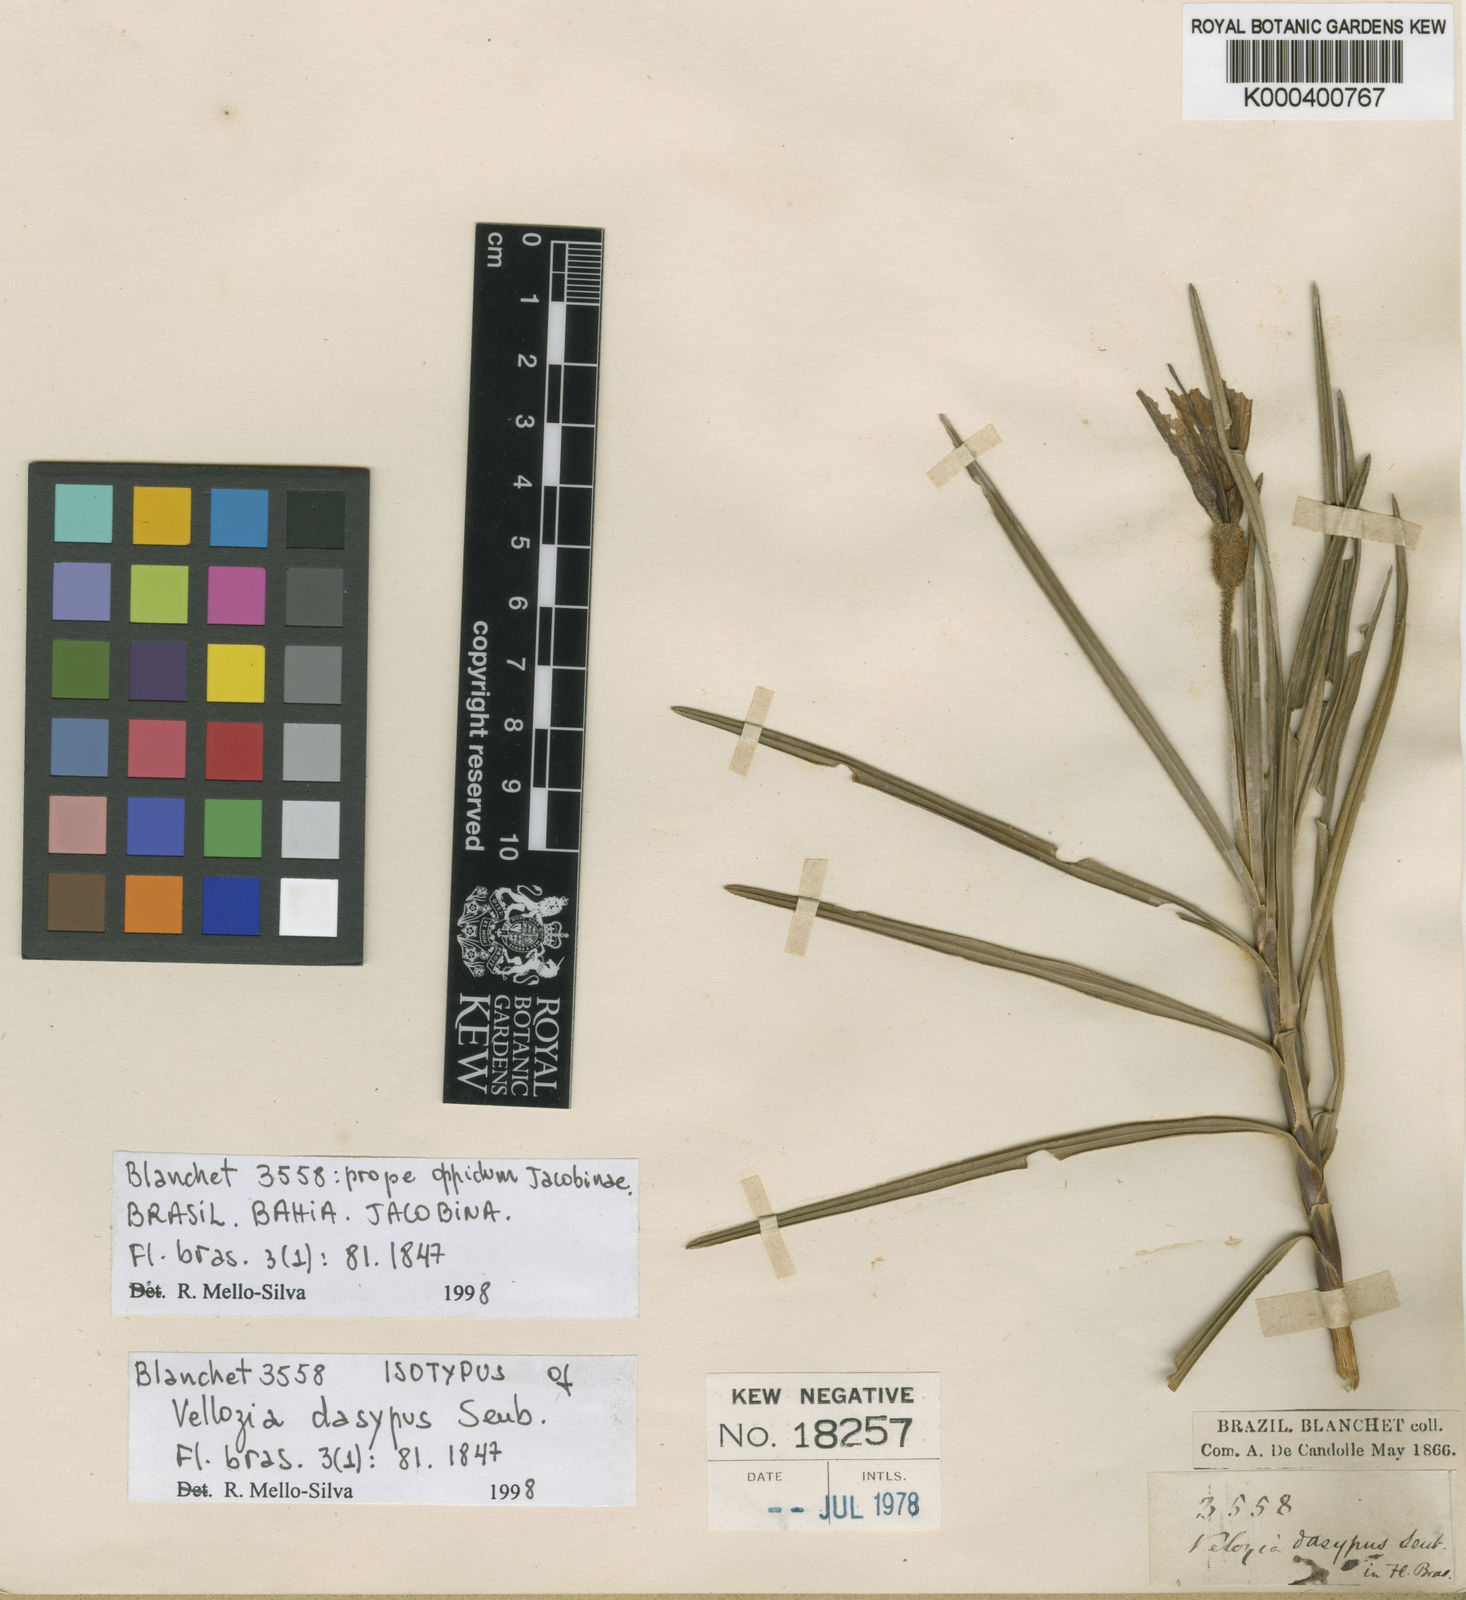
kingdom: Plantae
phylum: Tracheophyta
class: Liliopsida
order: Pandanales
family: Velloziaceae
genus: Vellozia
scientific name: Vellozia dasypus
